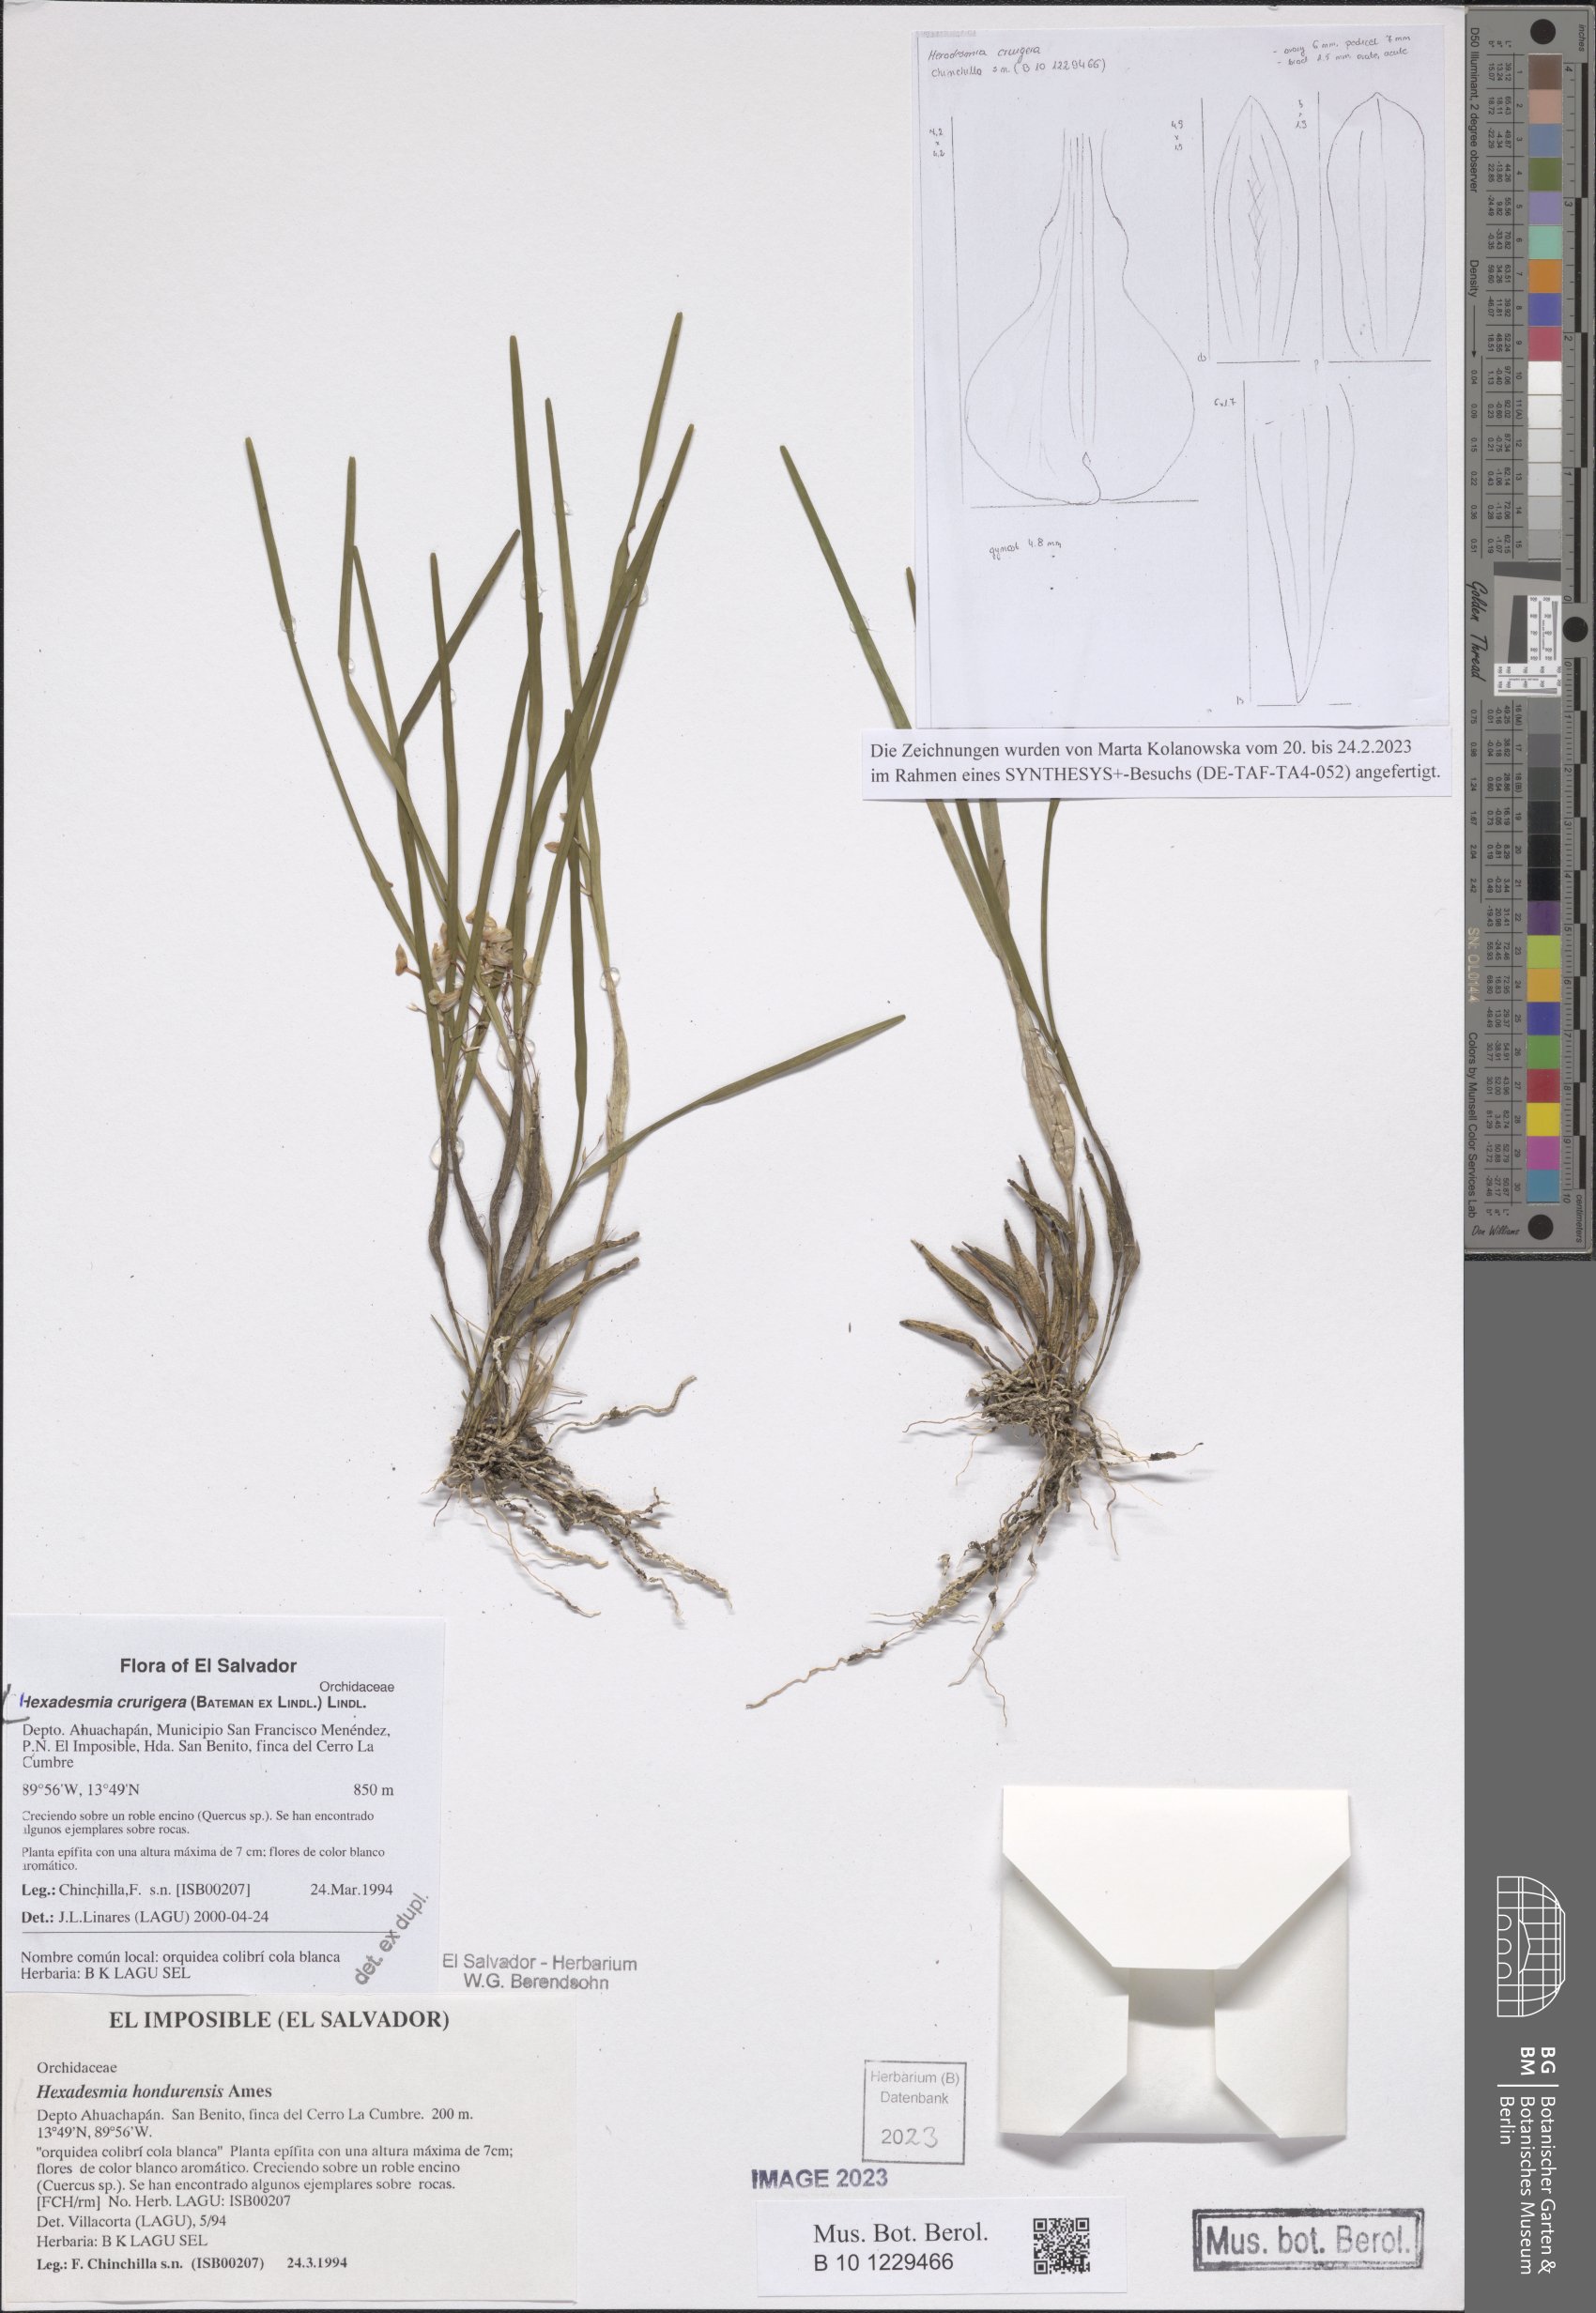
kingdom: Plantae
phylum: Tracheophyta
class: Liliopsida
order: Asparagales
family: Orchidaceae
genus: Scaphyglottis
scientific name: Scaphyglottis crurigera
